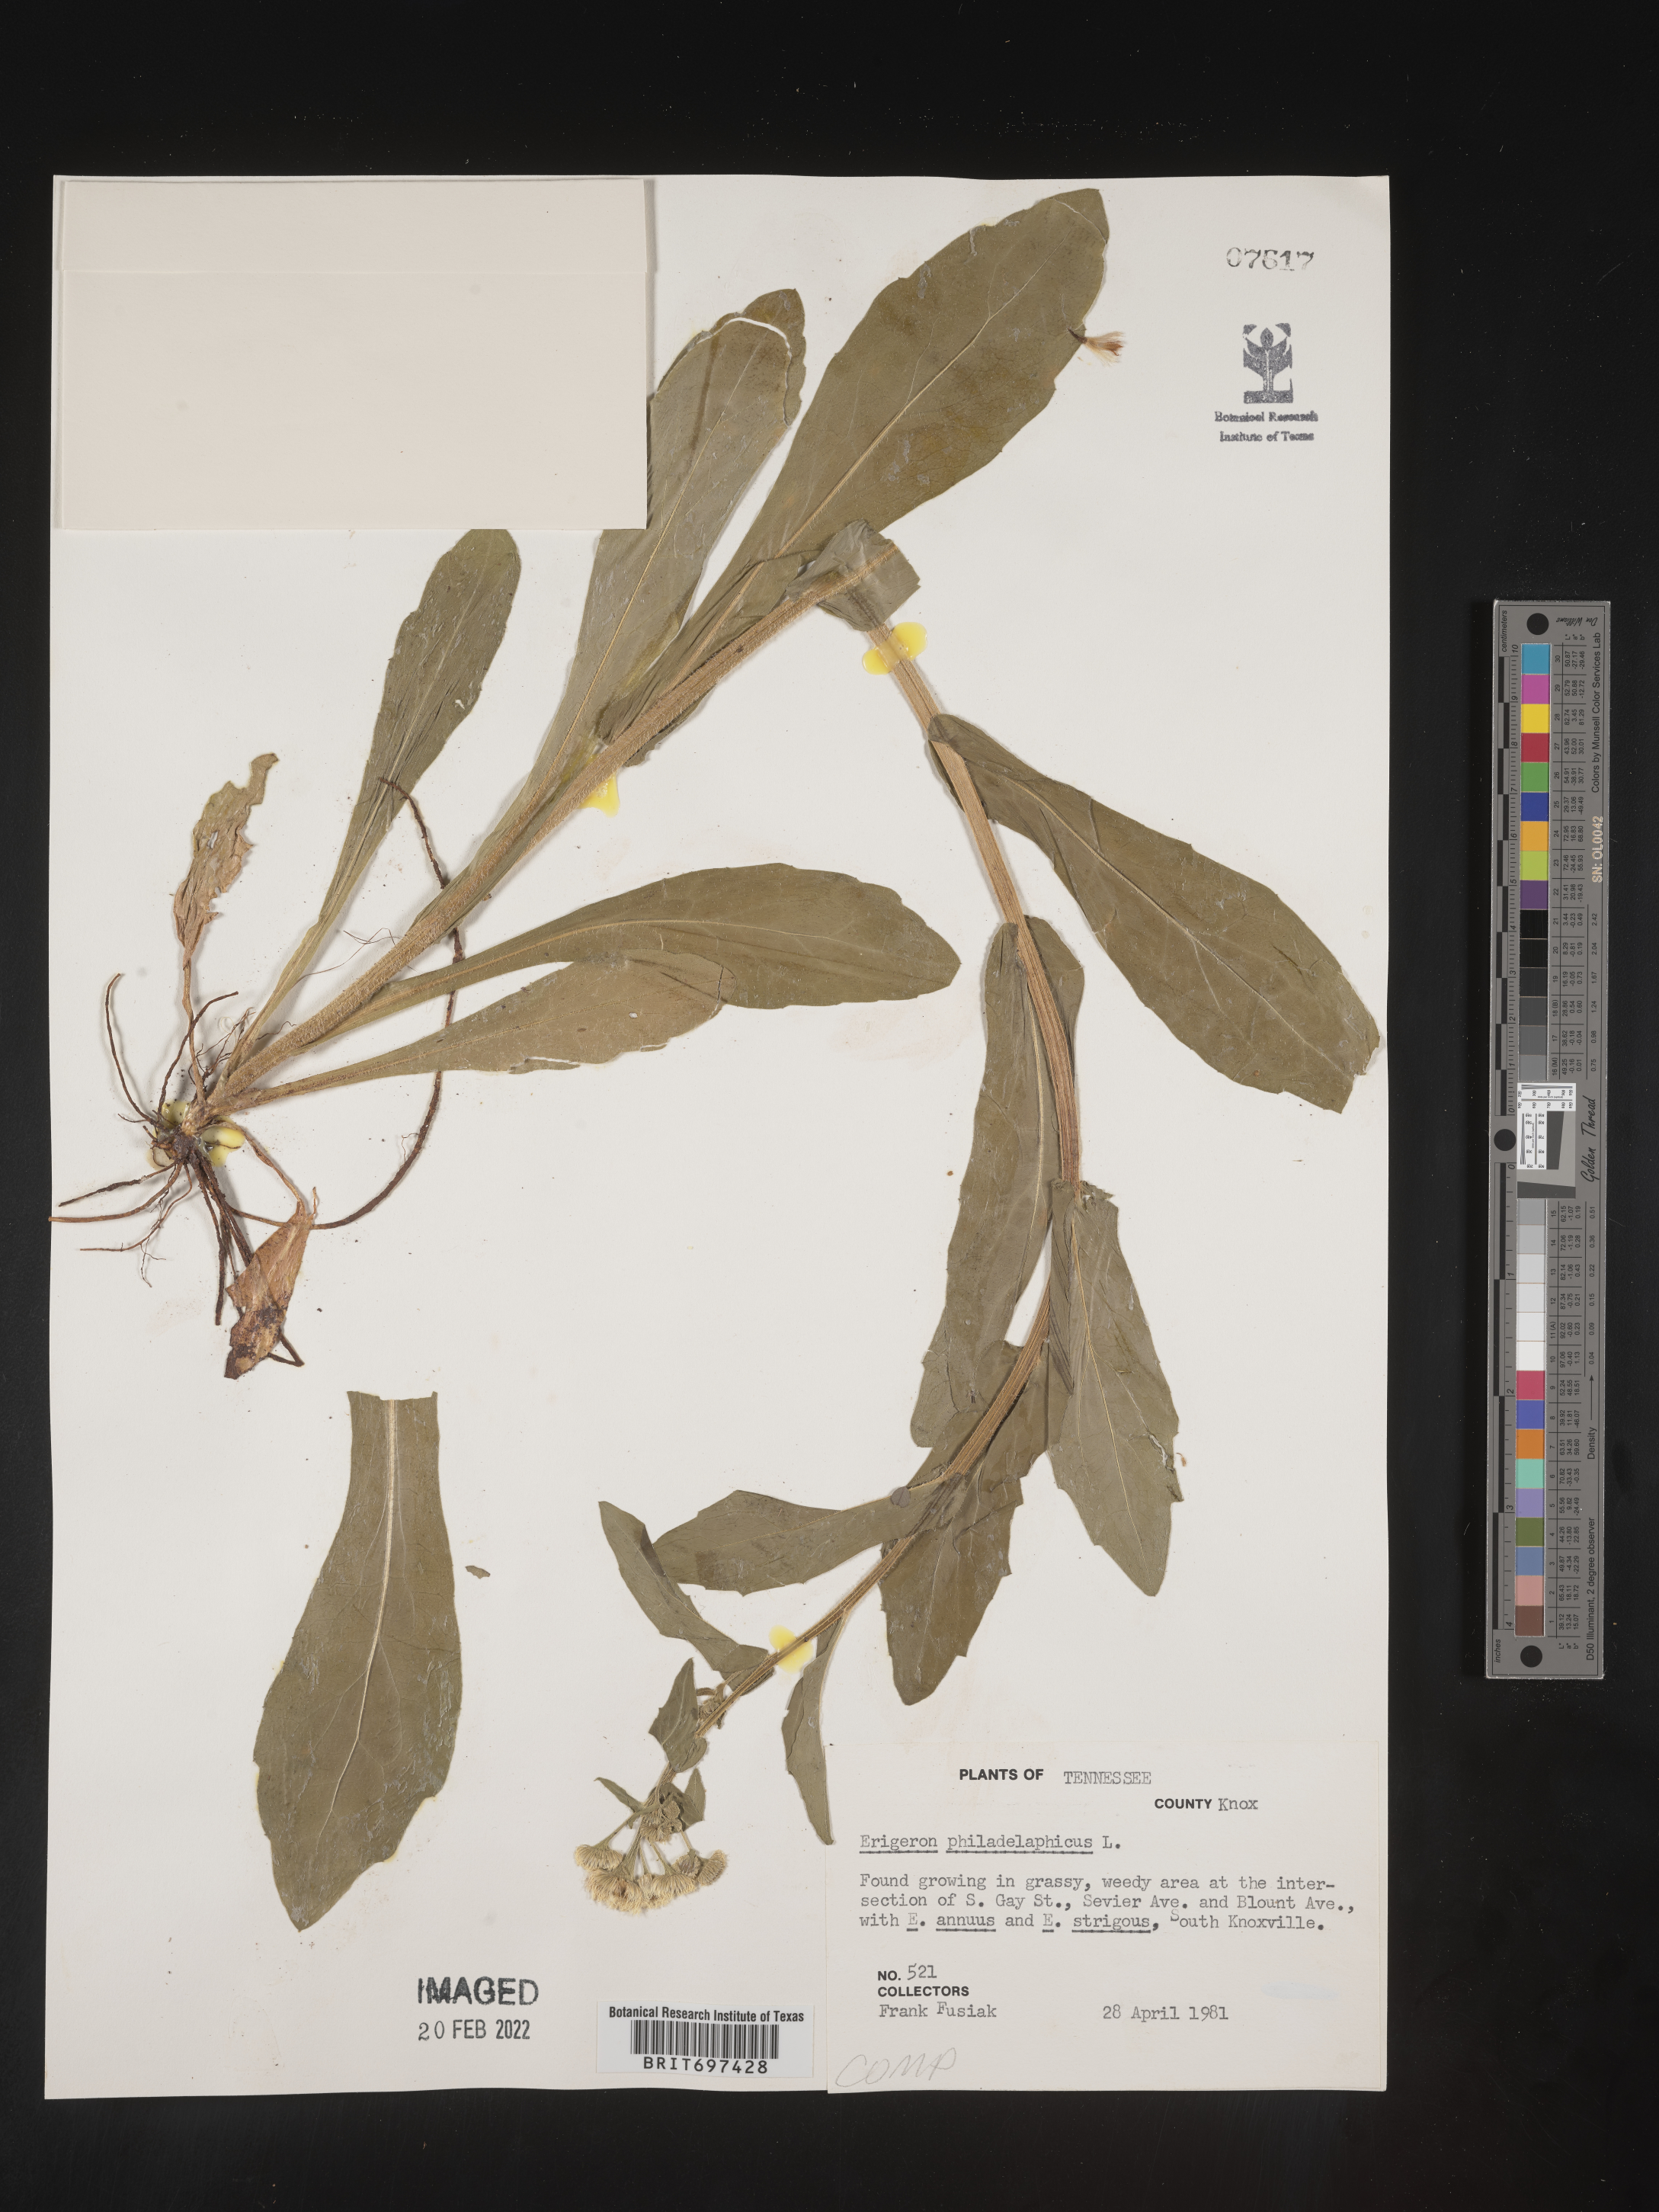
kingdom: Plantae
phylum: Tracheophyta
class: Magnoliopsida
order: Asterales
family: Asteraceae
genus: Erigeron
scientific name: Erigeron philadelphicus
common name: Robin's-plantain
